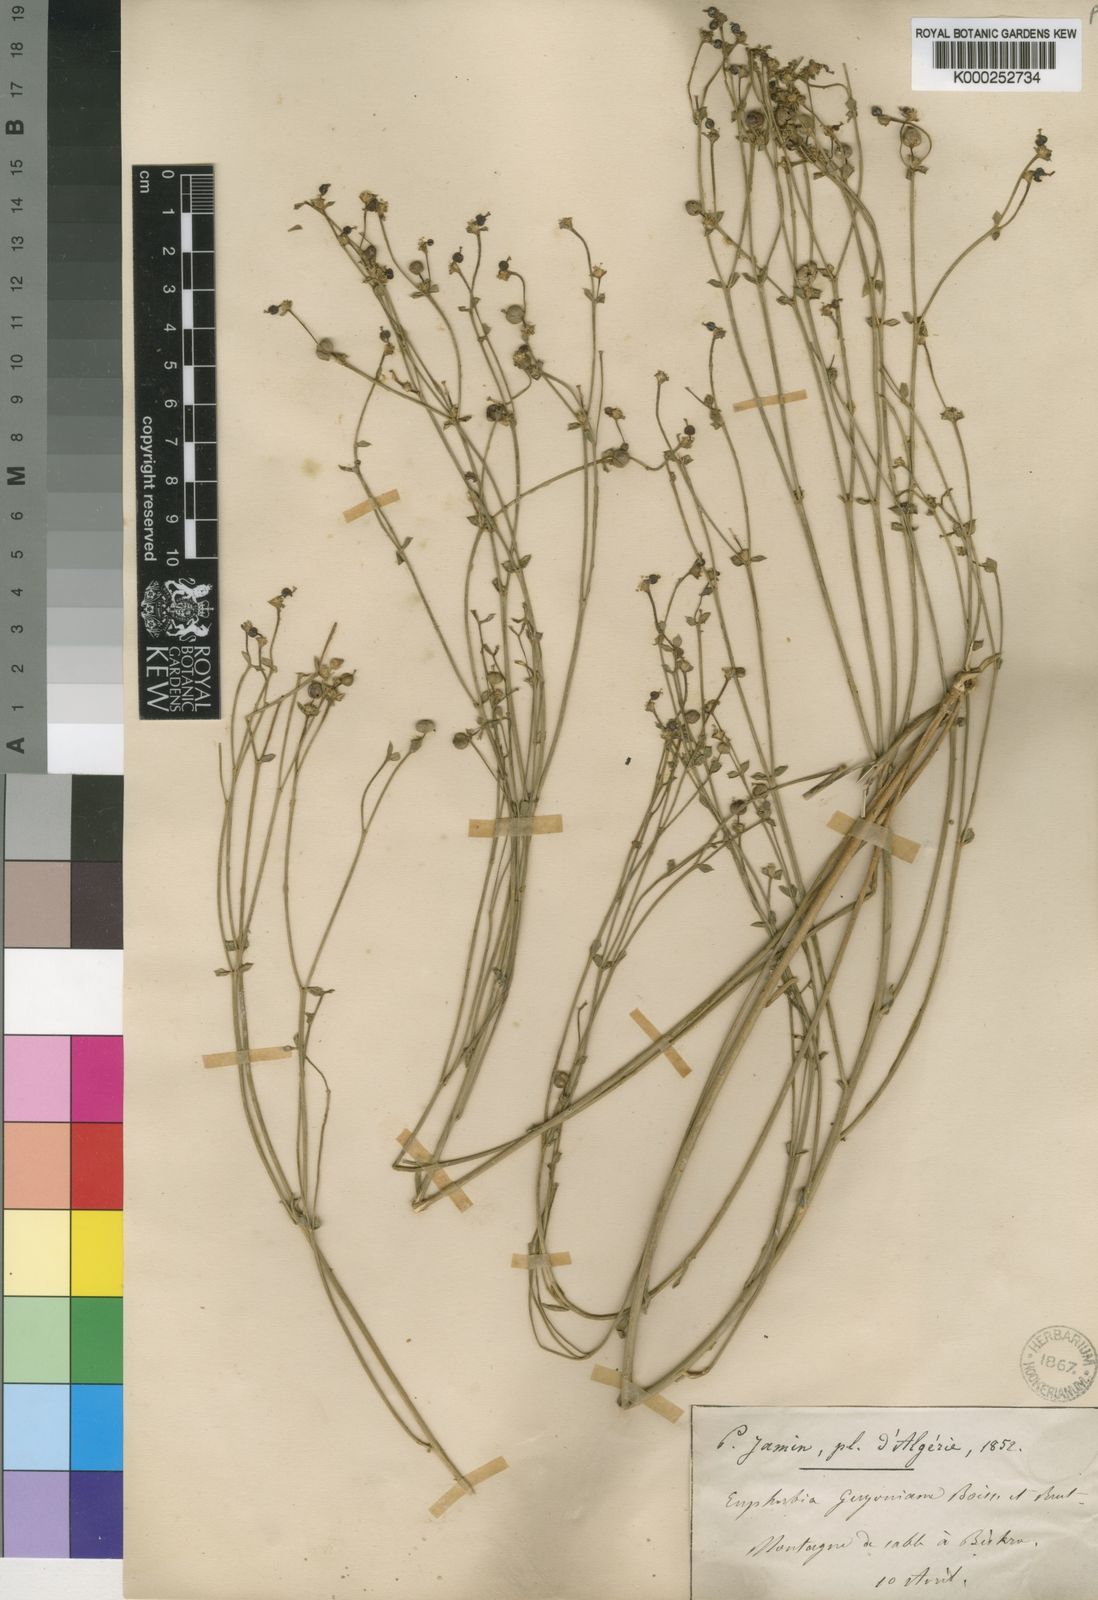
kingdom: Plantae
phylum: Tracheophyta
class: Magnoliopsida
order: Malpighiales
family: Euphorbiaceae
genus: Euphorbia
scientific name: Euphorbia guyoniana
